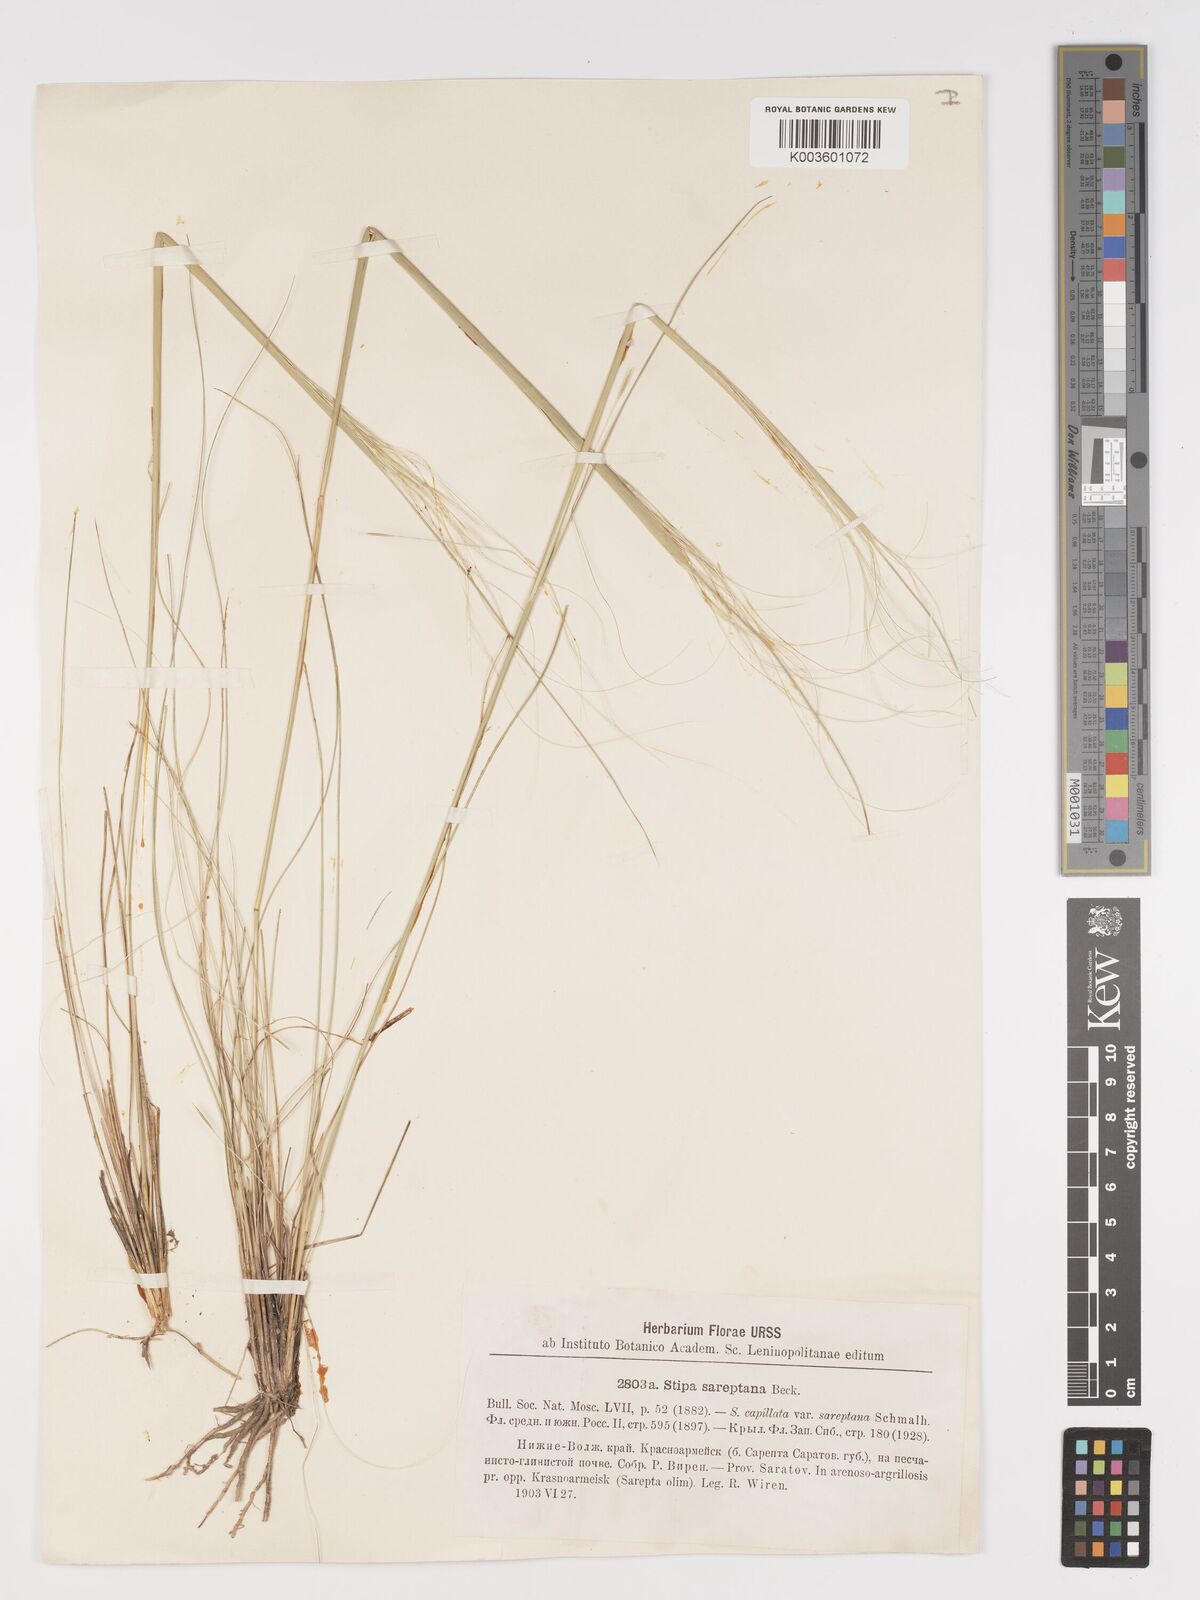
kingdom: Plantae
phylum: Tracheophyta
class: Liliopsida
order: Poales
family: Poaceae
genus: Stipa
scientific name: Stipa sareptana
